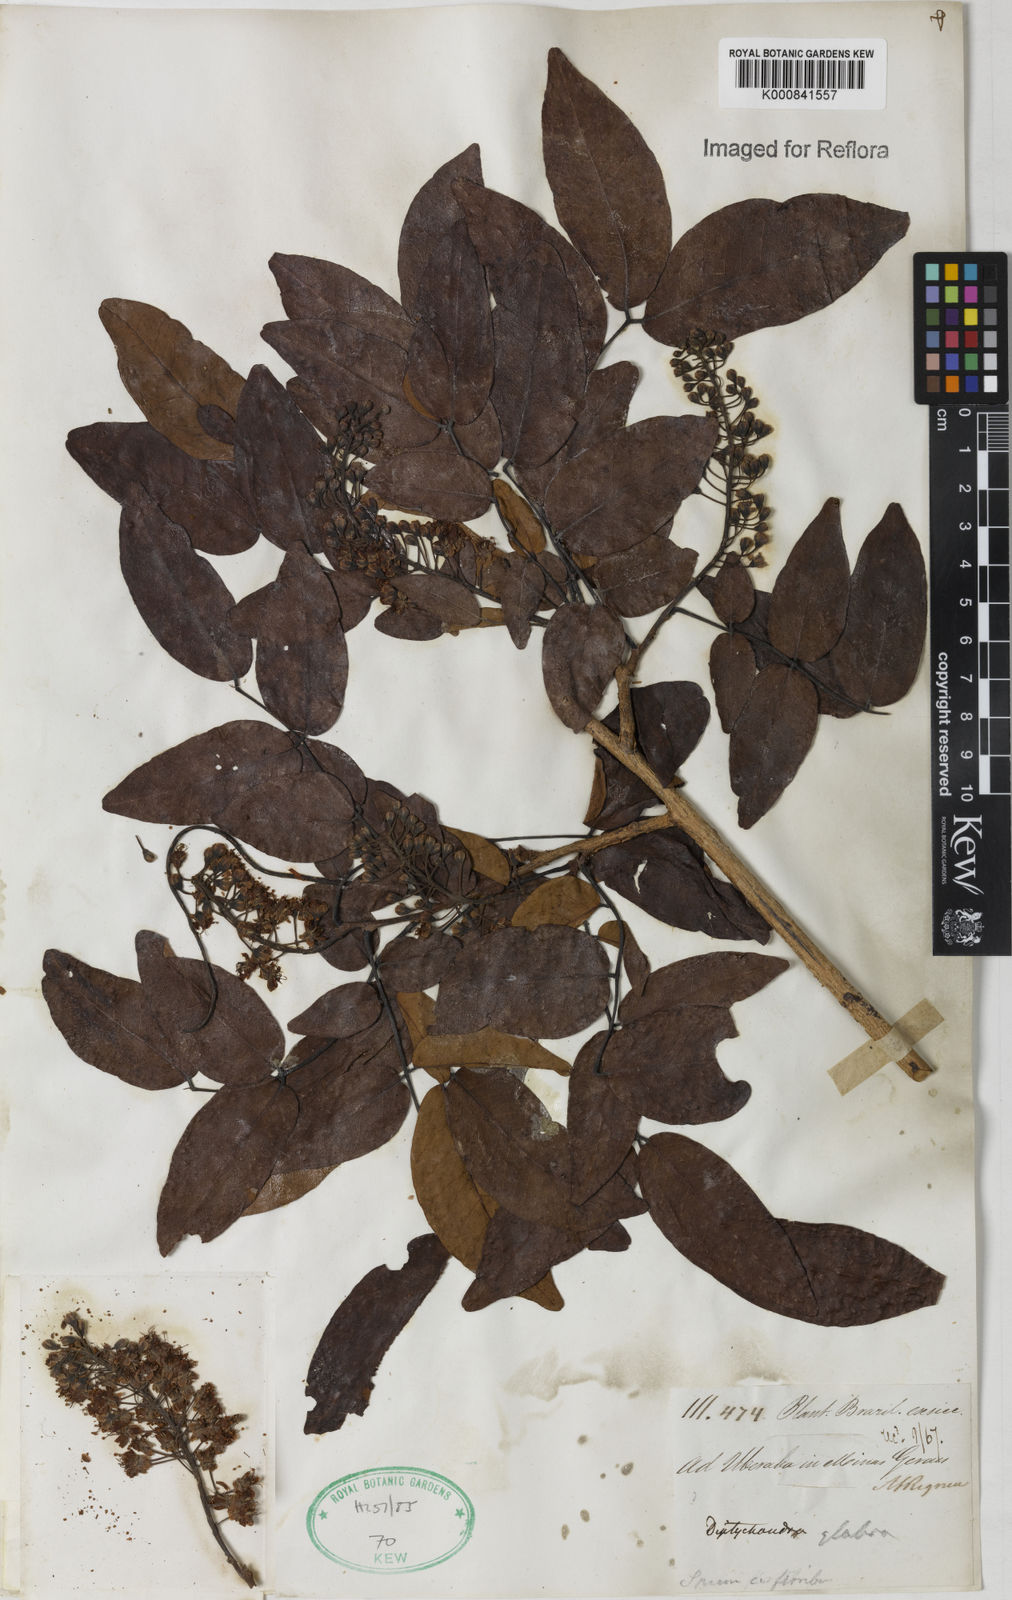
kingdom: Plantae
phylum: Tracheophyta
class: Magnoliopsida
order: Fabales
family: Fabaceae
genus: Diptychandra
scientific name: Diptychandra
